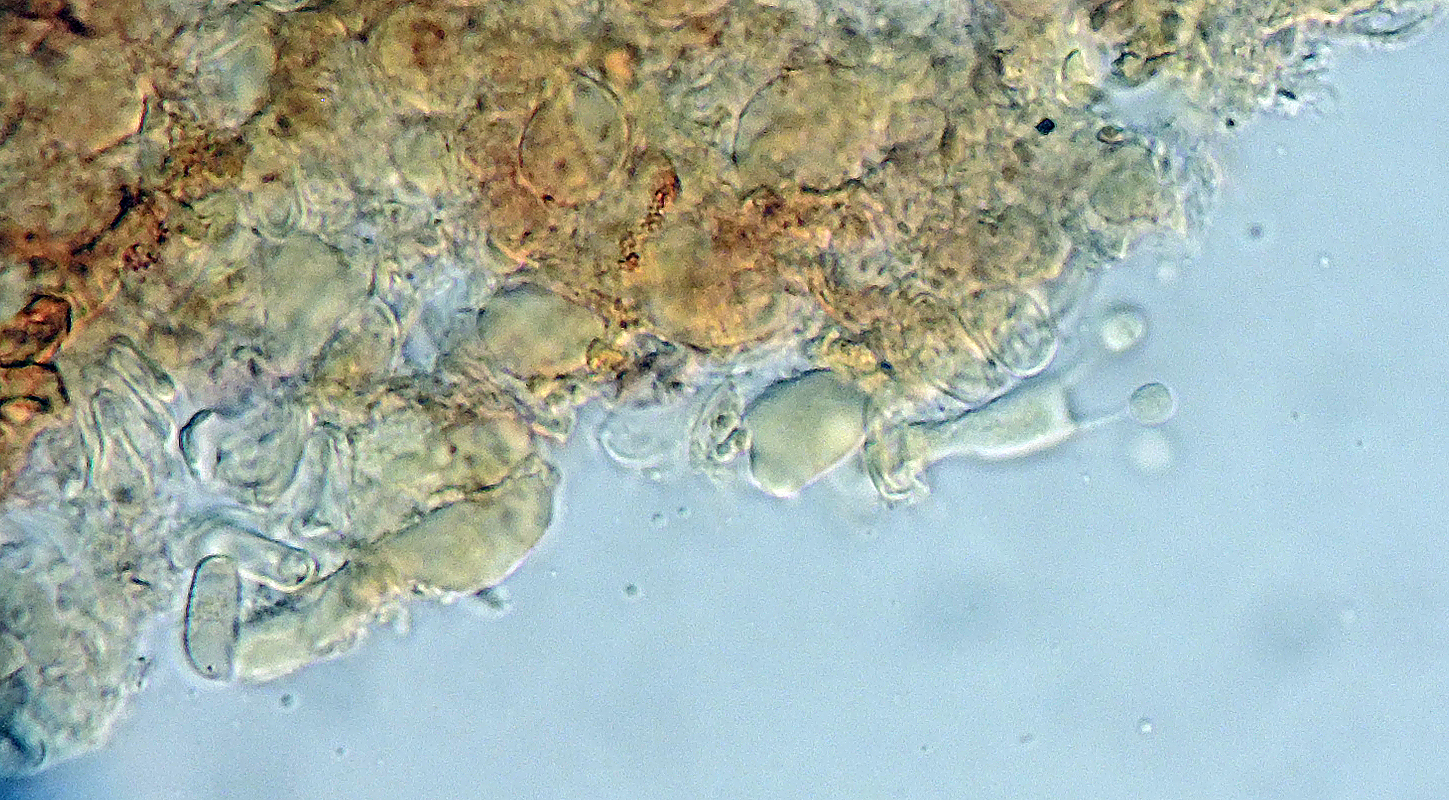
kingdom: Fungi
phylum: Basidiomycota
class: Agaricomycetes
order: Corticiales
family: Corticiaceae
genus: Leptocorticium
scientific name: Leptocorticium utribasidiatum
